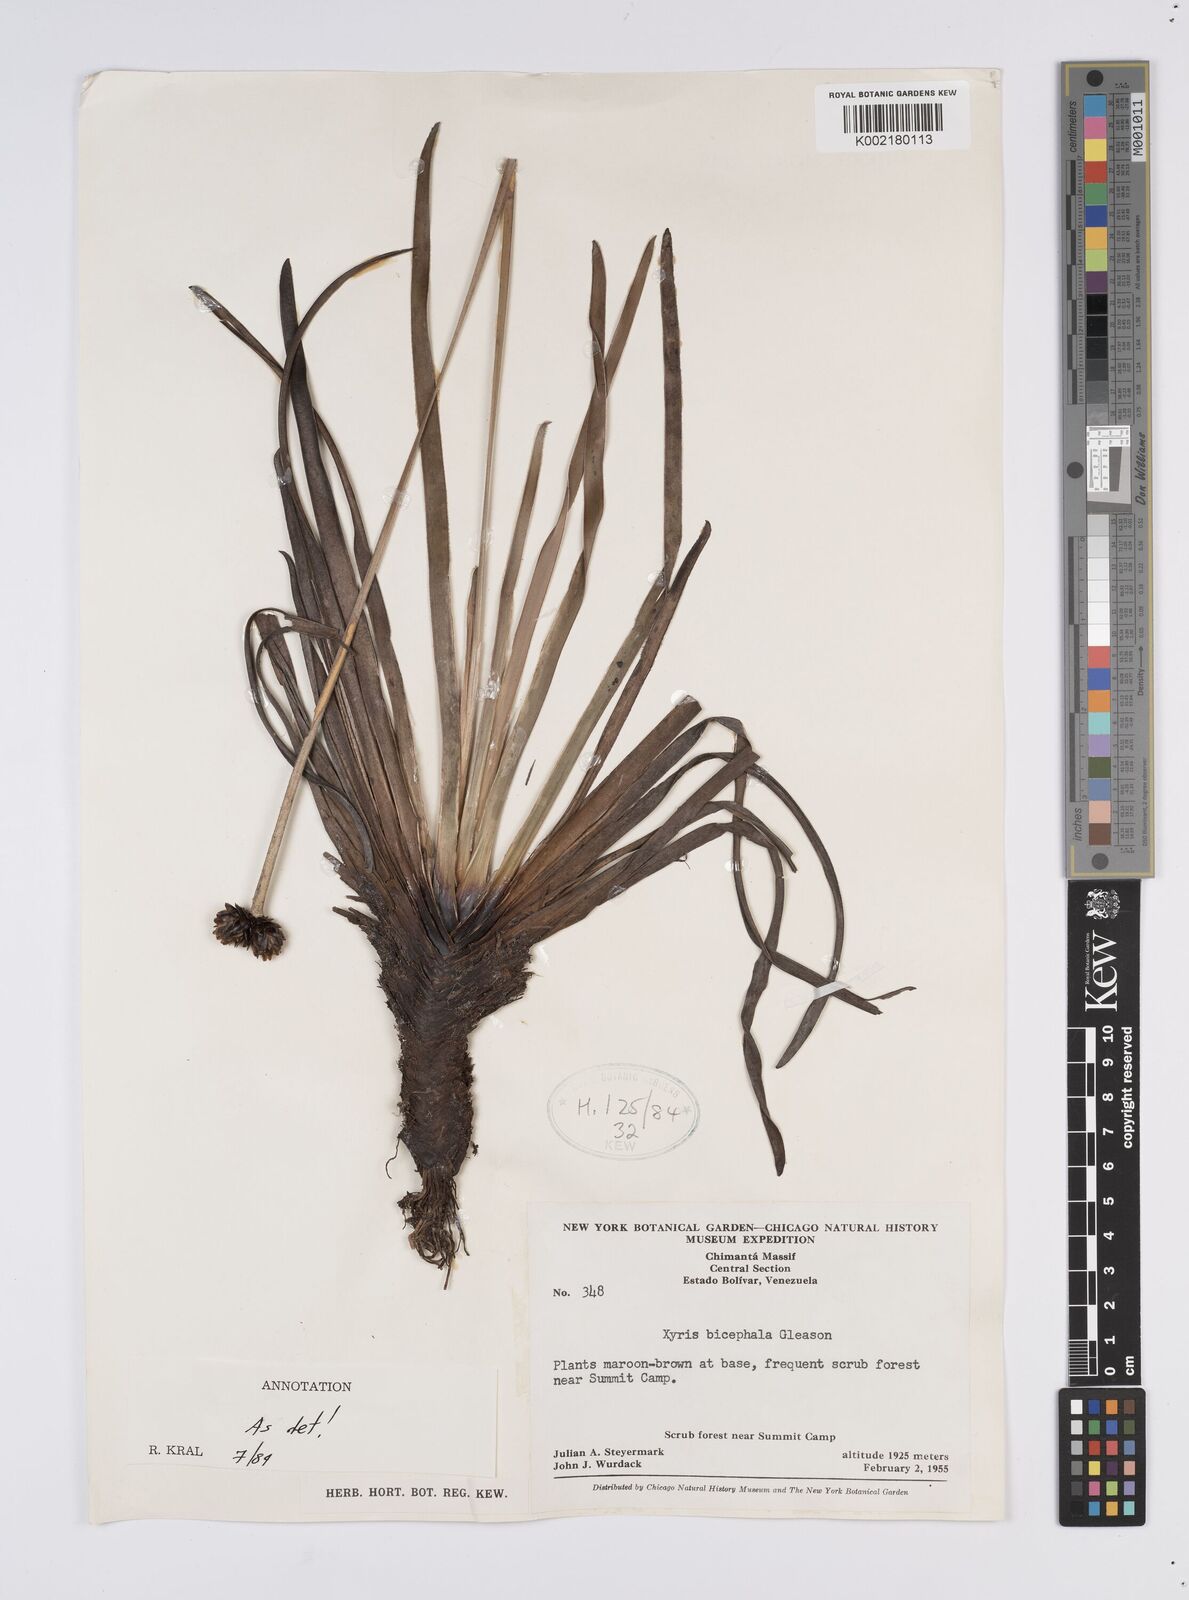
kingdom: Plantae
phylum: Tracheophyta
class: Liliopsida
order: Poales
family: Xyridaceae
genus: Xyris
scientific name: Xyris bicephala
